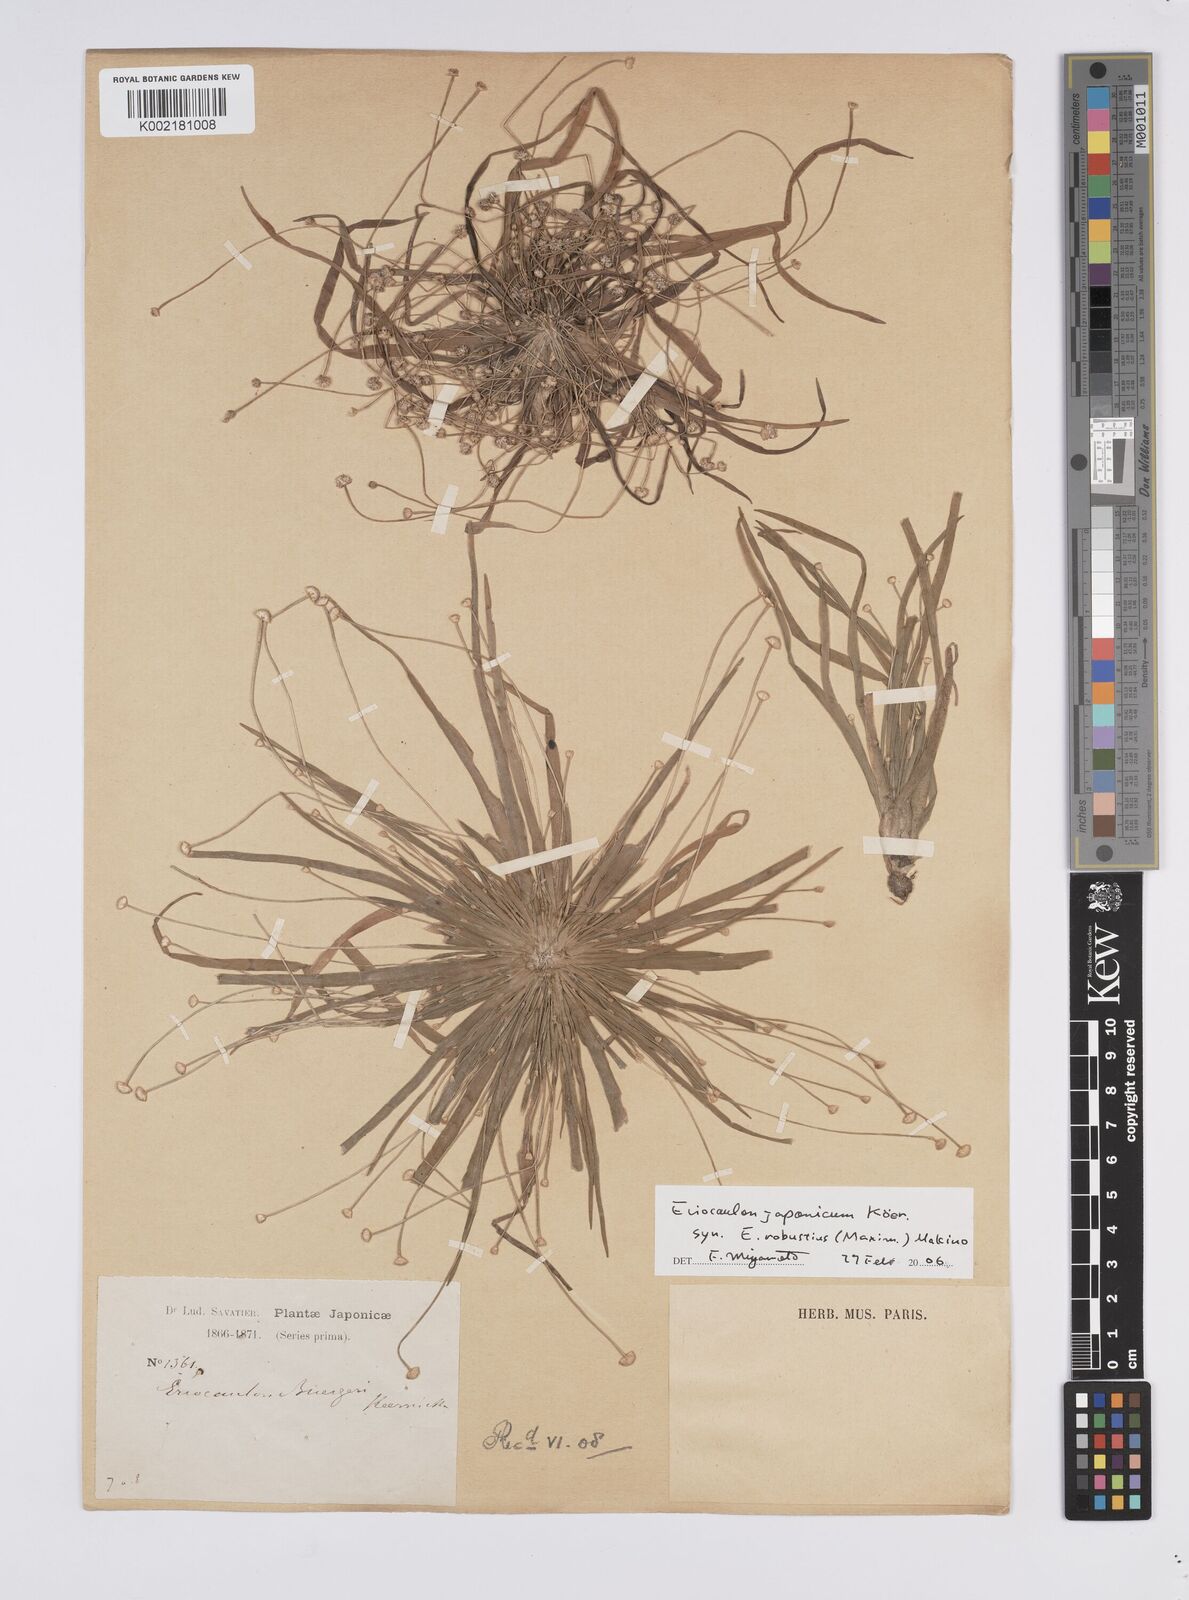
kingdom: Plantae
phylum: Tracheophyta
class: Liliopsida
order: Poales
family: Eriocaulaceae
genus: Eriocaulon
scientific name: Eriocaulon buergerianum
